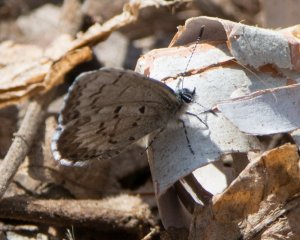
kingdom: Animalia
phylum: Arthropoda
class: Insecta
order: Lepidoptera
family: Lycaenidae
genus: Celastrina
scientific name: Celastrina lucia
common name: Northern Spring Azure
